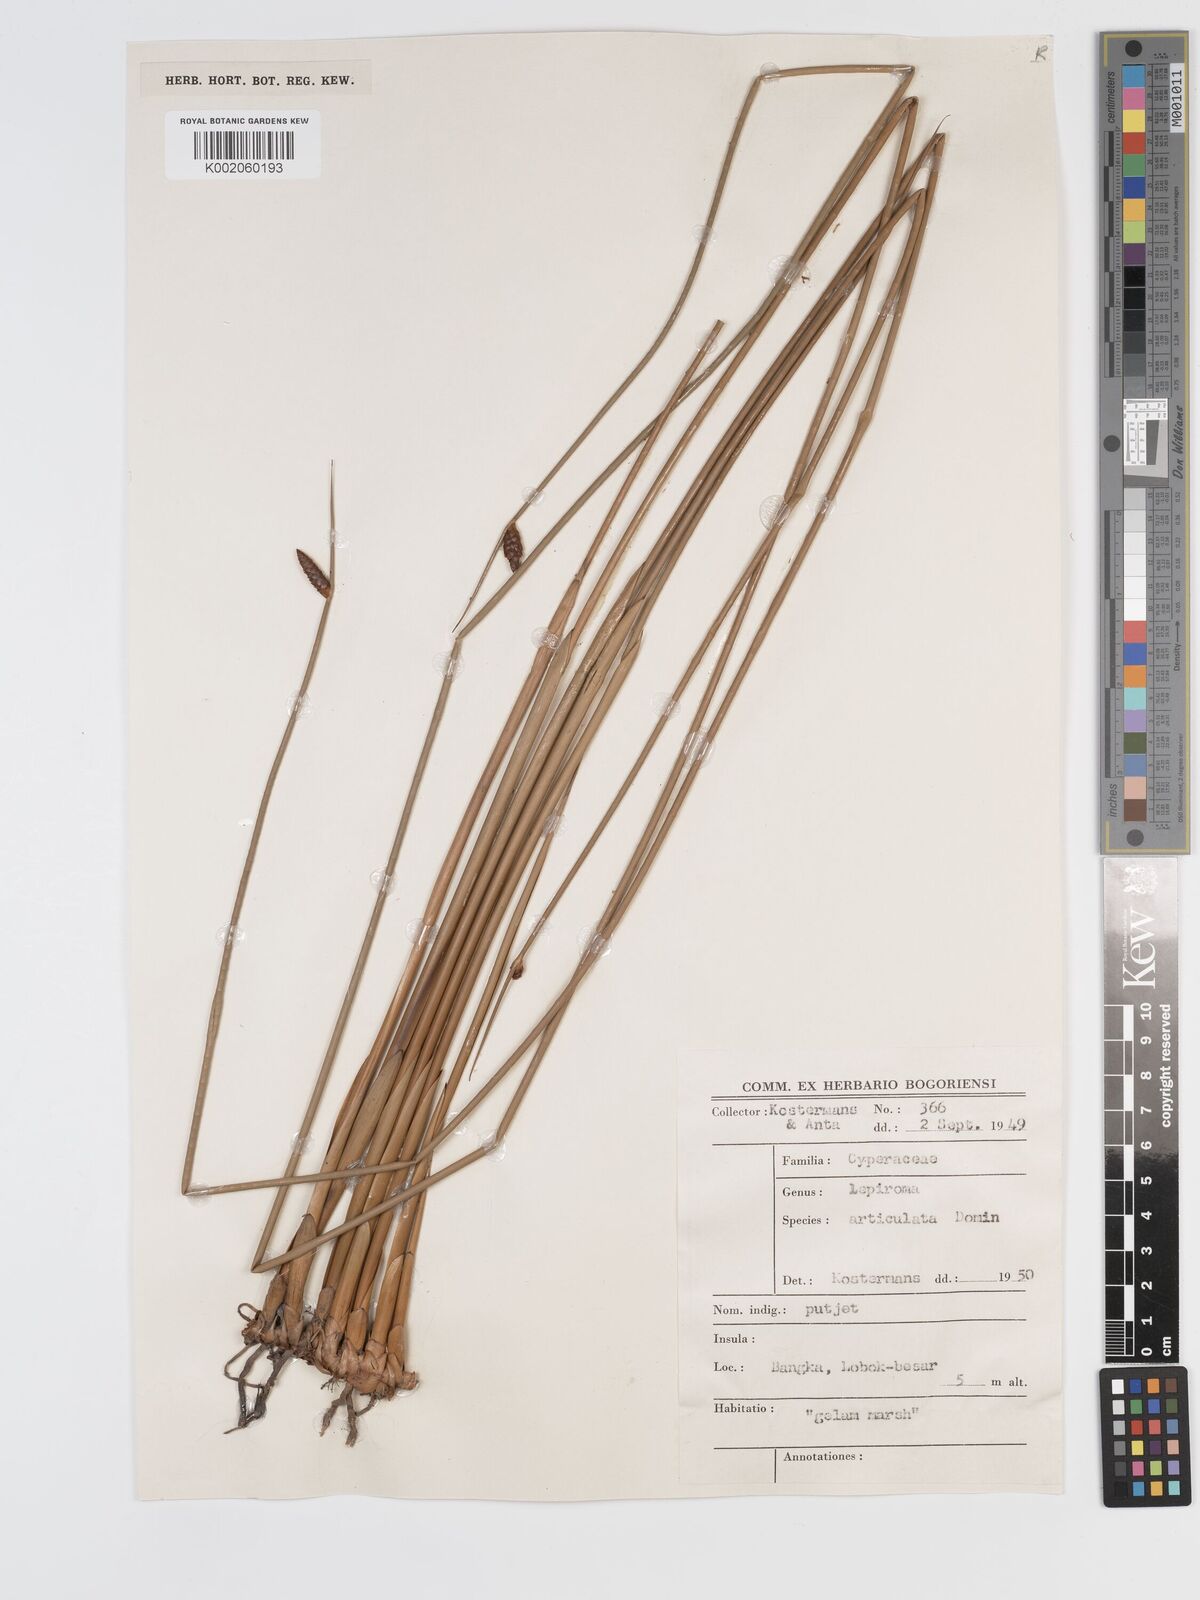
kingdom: Plantae
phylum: Tracheophyta
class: Liliopsida
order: Poales
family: Cyperaceae
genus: Lepironia
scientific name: Lepironia articulata
